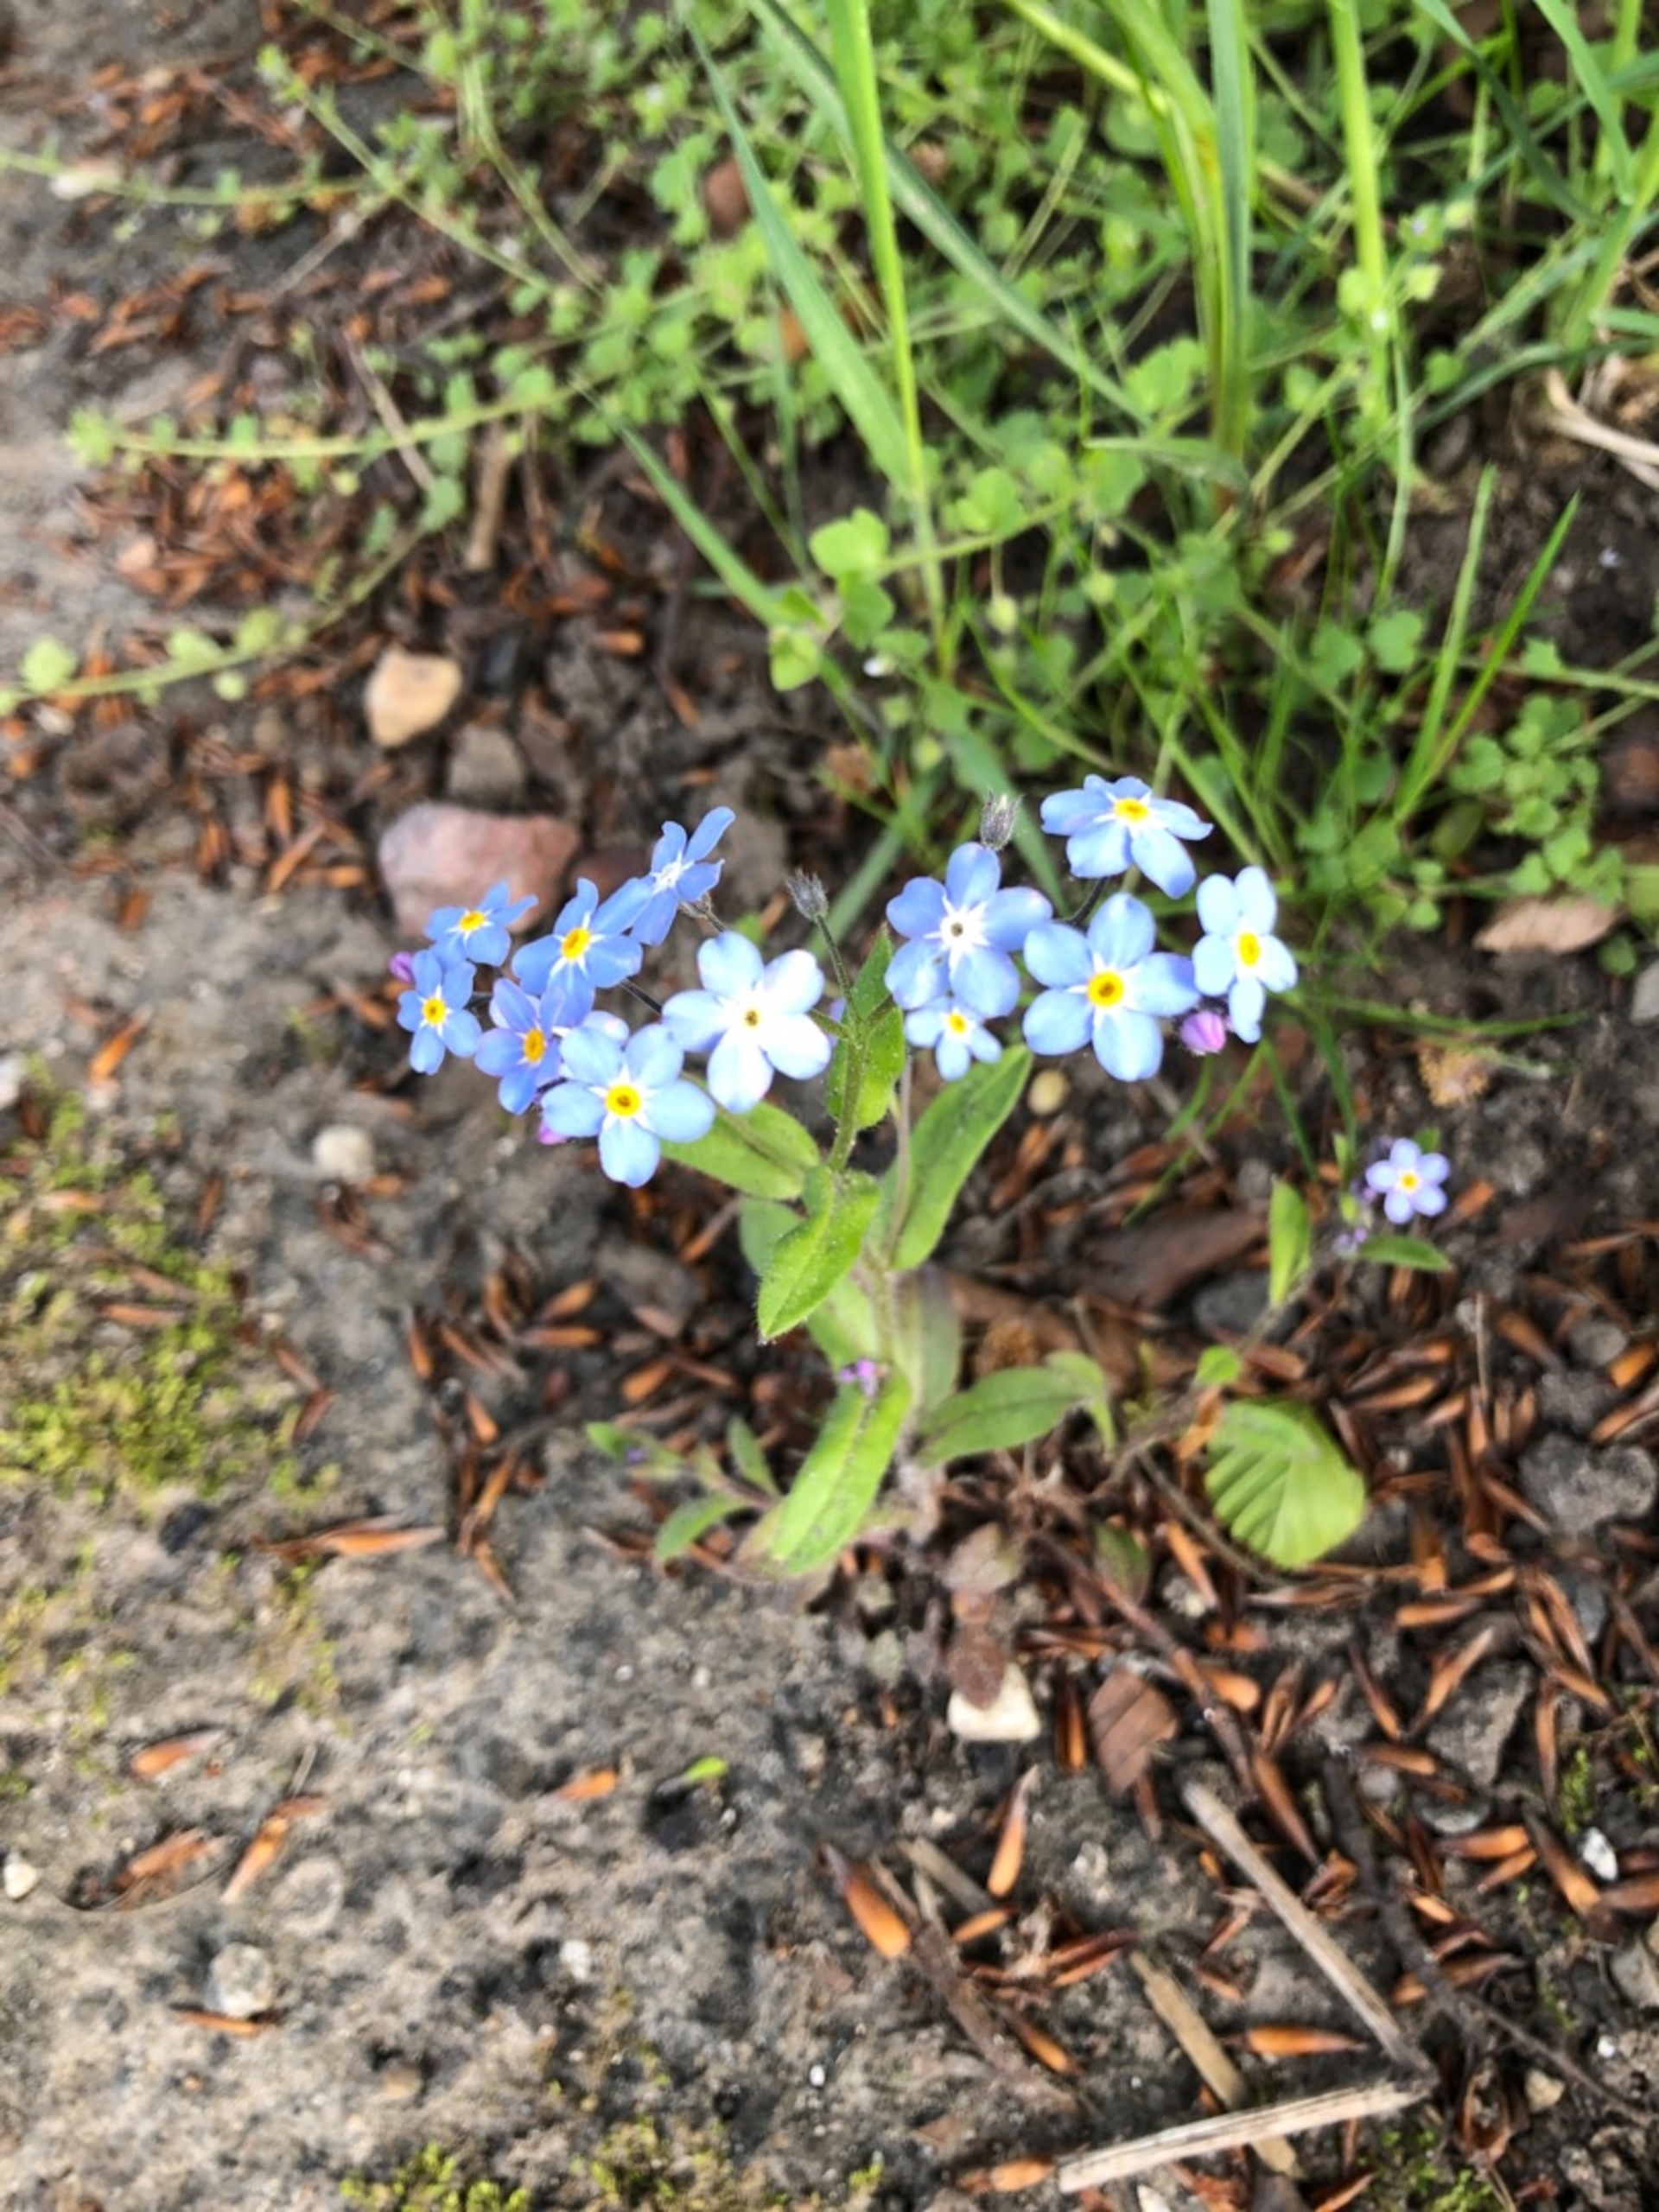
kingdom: Plantae
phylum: Tracheophyta
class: Magnoliopsida
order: Boraginales
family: Boraginaceae
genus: Myosotis
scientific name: Myosotis sylvatica
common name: Skov-forglemmigej
